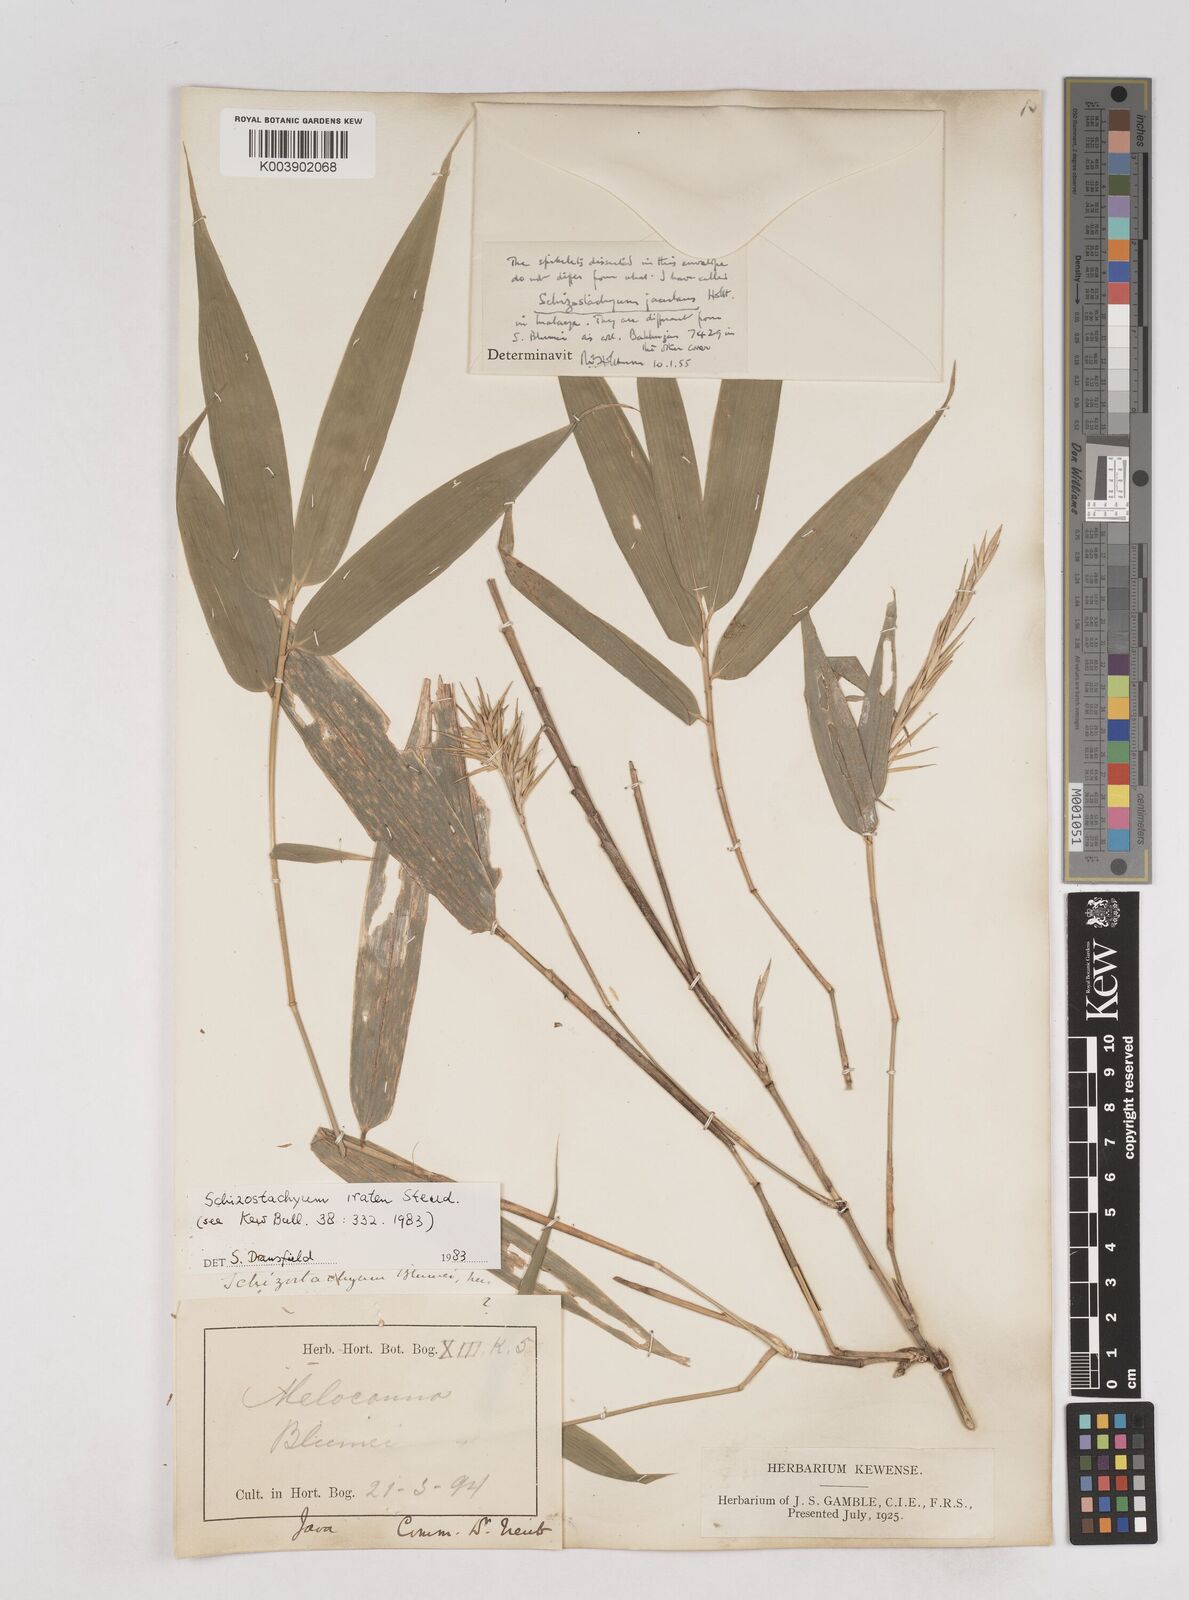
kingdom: Plantae
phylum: Tracheophyta
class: Liliopsida
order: Poales
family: Poaceae
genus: Schizostachyum
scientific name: Schizostachyum iraten
